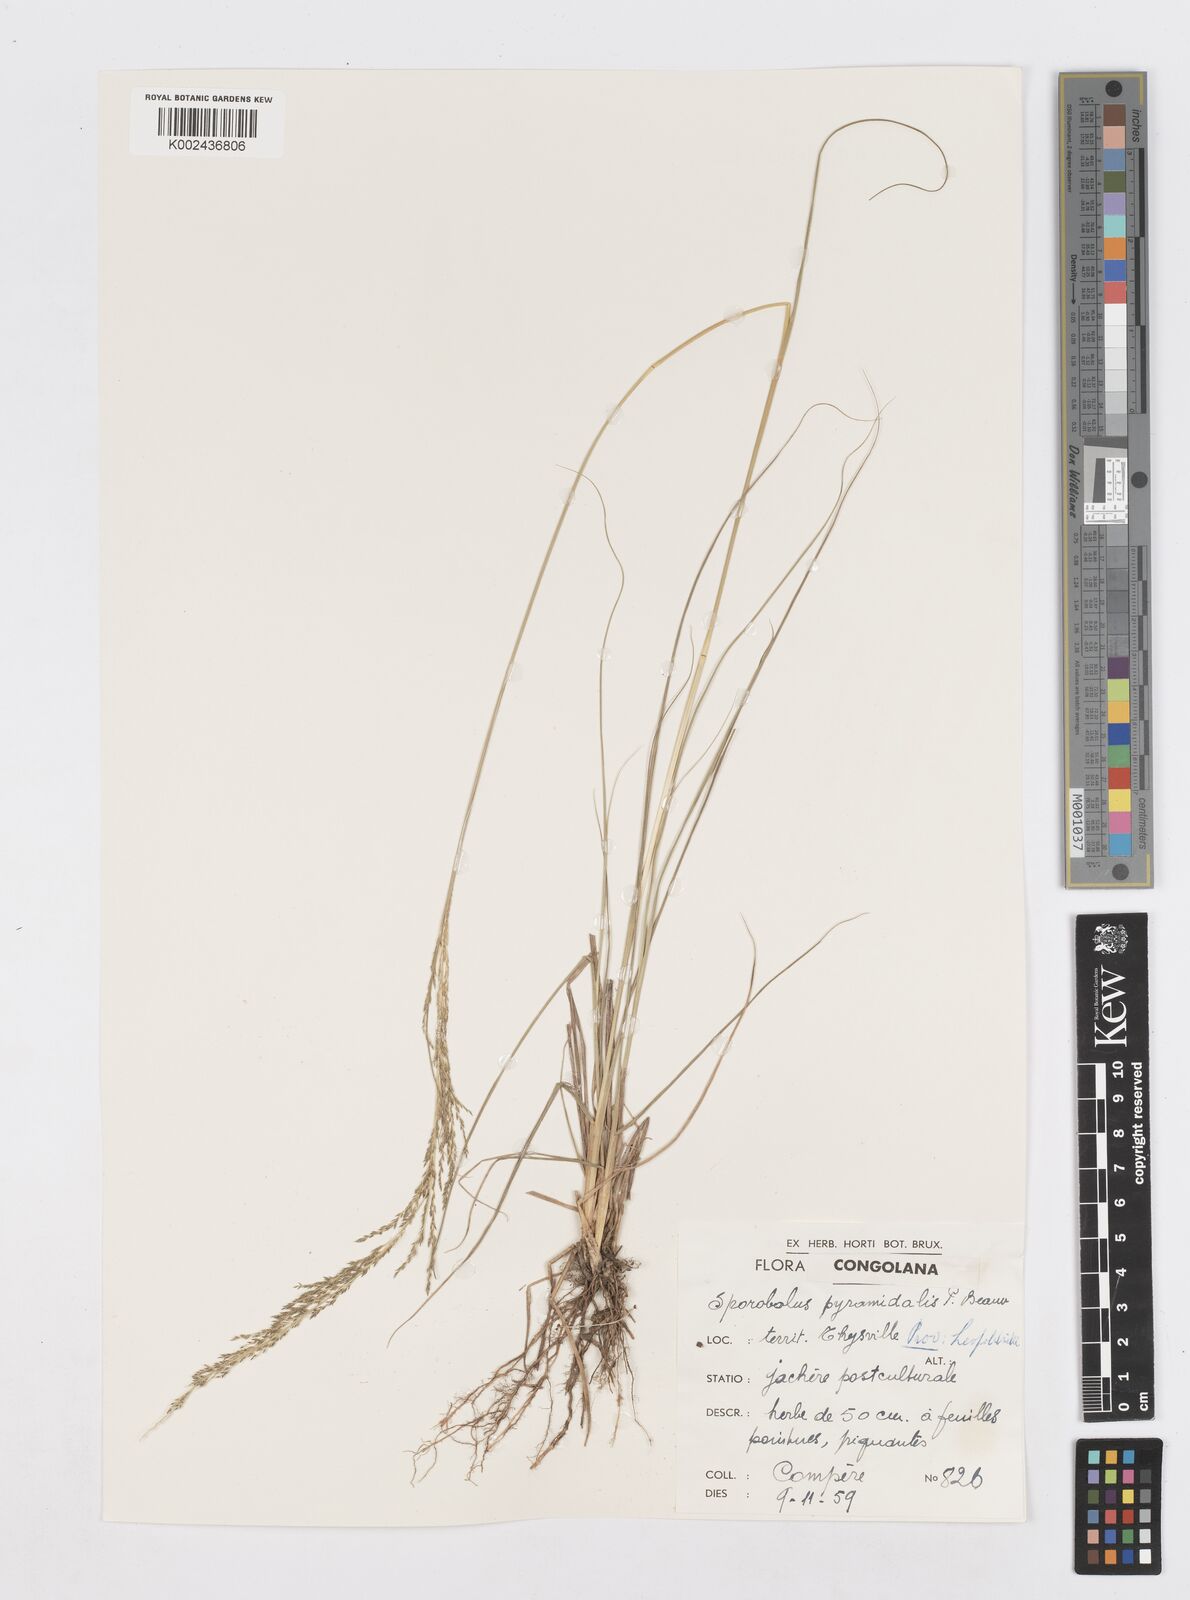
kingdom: Plantae
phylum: Tracheophyta
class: Liliopsida
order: Poales
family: Poaceae
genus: Sporobolus
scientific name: Sporobolus pyramidalis
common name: West indian dropseed
